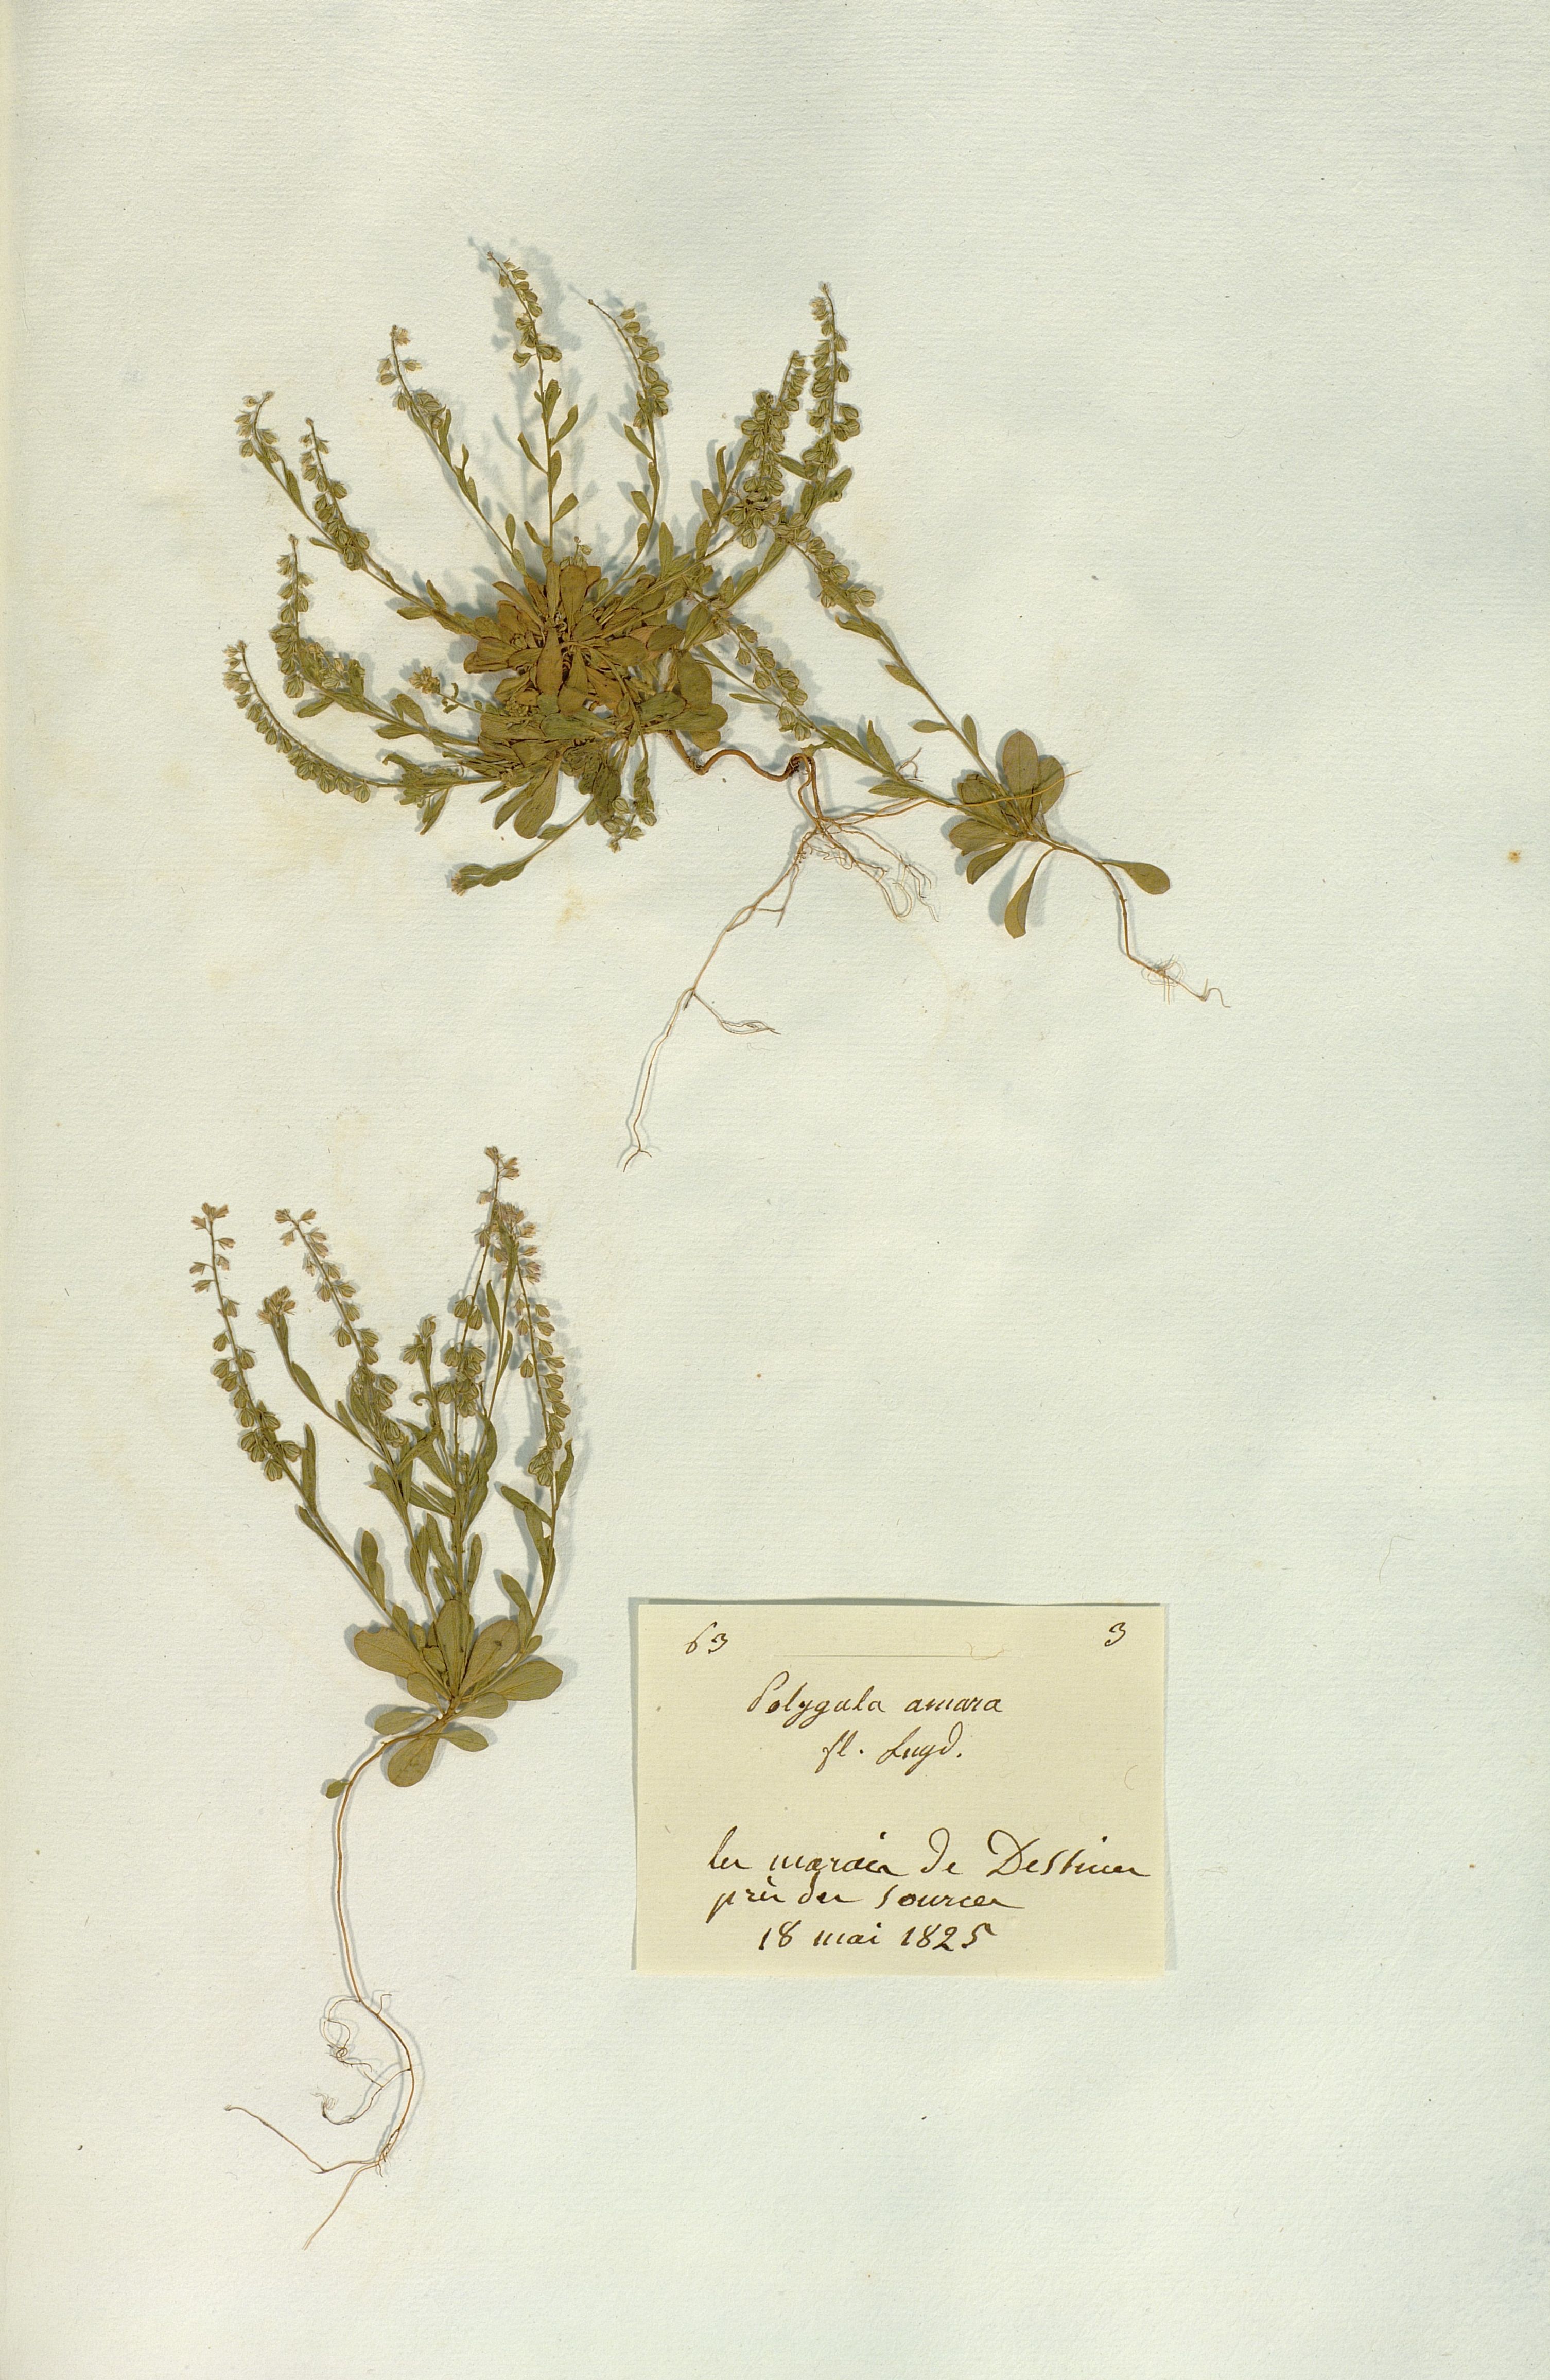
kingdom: Plantae
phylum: Tracheophyta
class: Magnoliopsida
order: Fabales
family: Polygalaceae
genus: Polygala
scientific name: Polygala amara
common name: Milkwort
